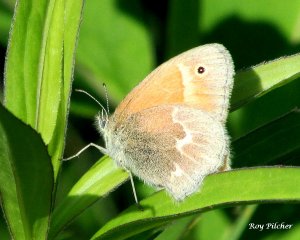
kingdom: Animalia
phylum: Arthropoda
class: Insecta
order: Lepidoptera
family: Nymphalidae
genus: Coenonympha
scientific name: Coenonympha tullia
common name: Large Heath
